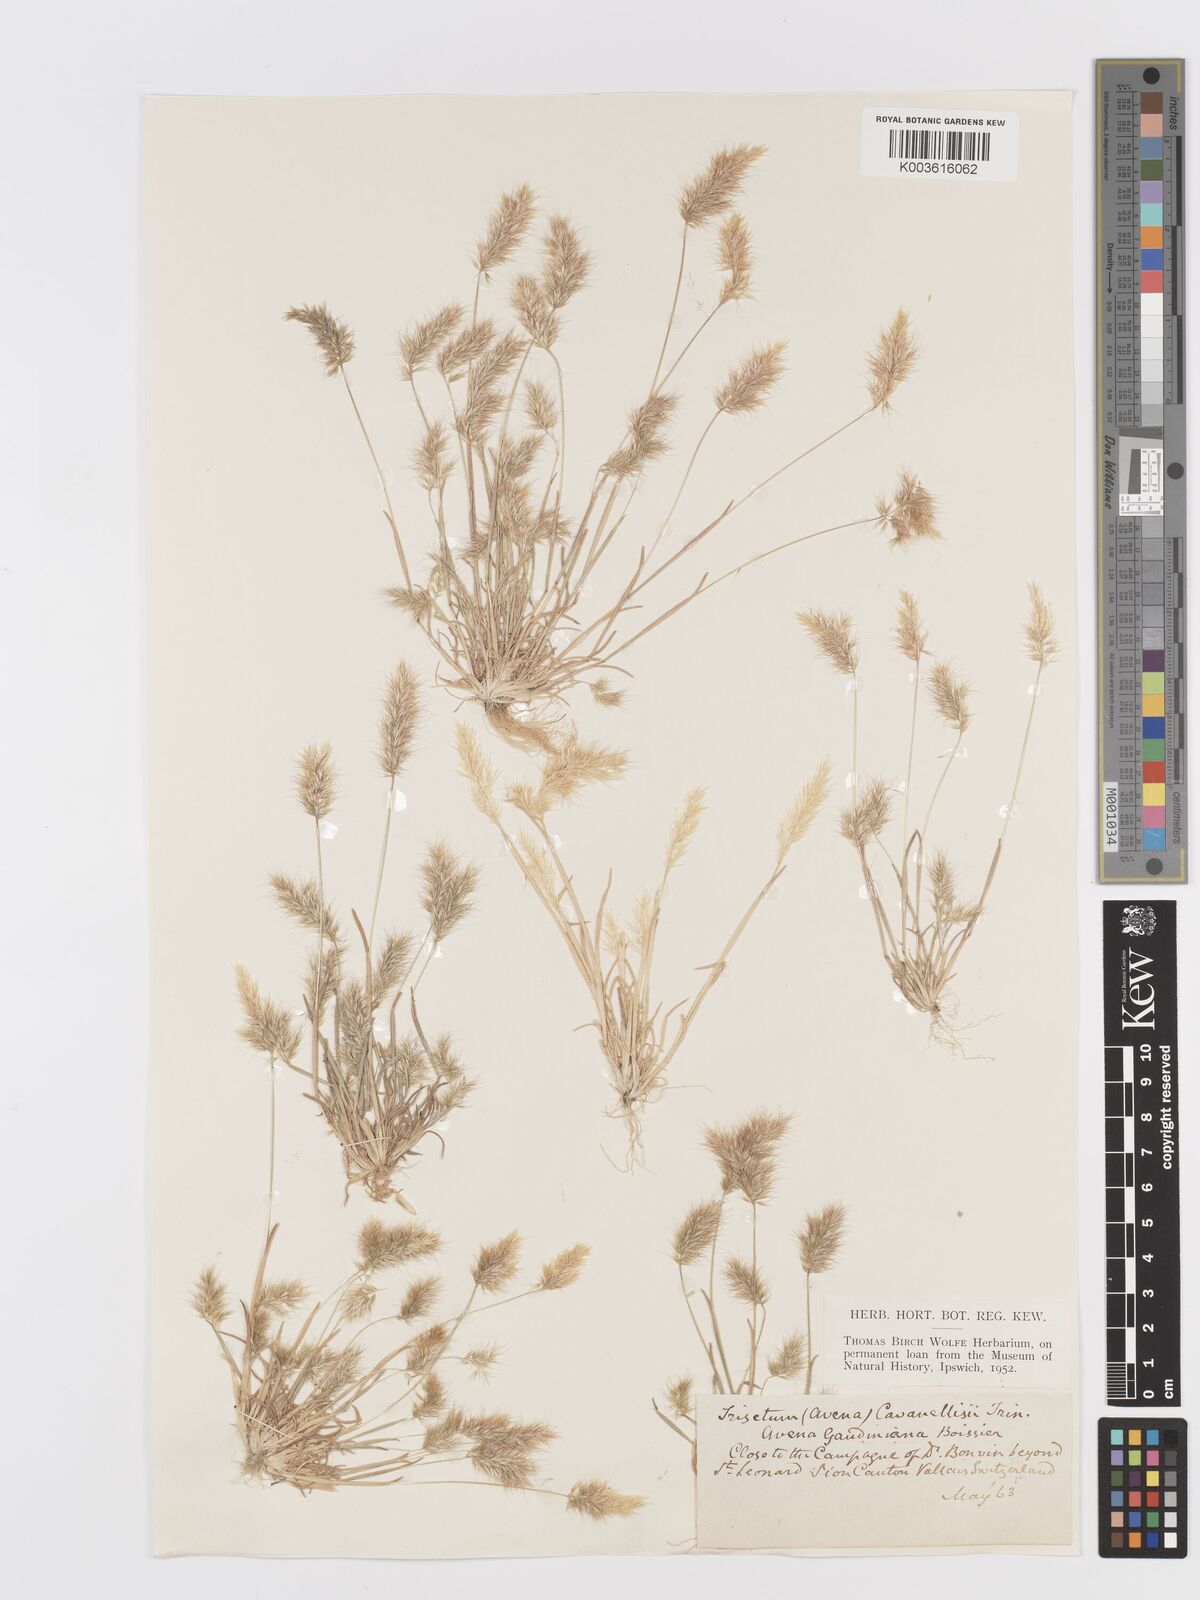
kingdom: Plantae
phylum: Tracheophyta
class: Liliopsida
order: Poales
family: Poaceae
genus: Trisetaria
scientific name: Trisetaria loeflingiana
